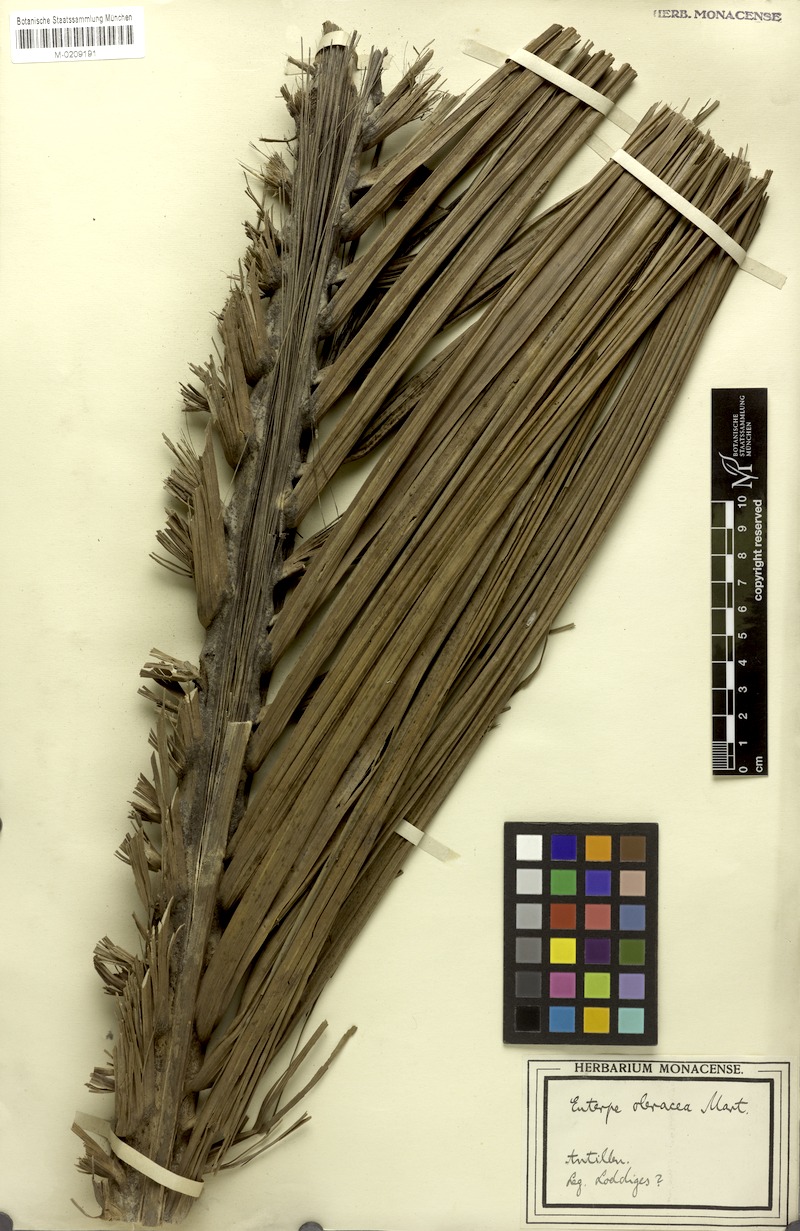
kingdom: Plantae
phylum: Tracheophyta
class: Liliopsida
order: Arecales
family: Arecaceae
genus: Euterpe
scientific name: Euterpe oleracea
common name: Assai palm
